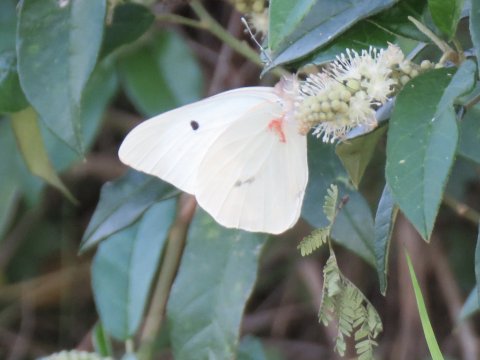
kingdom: Animalia
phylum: Arthropoda
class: Insecta
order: Lepidoptera
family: Pieridae
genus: Ganyra
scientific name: Ganyra josephina
